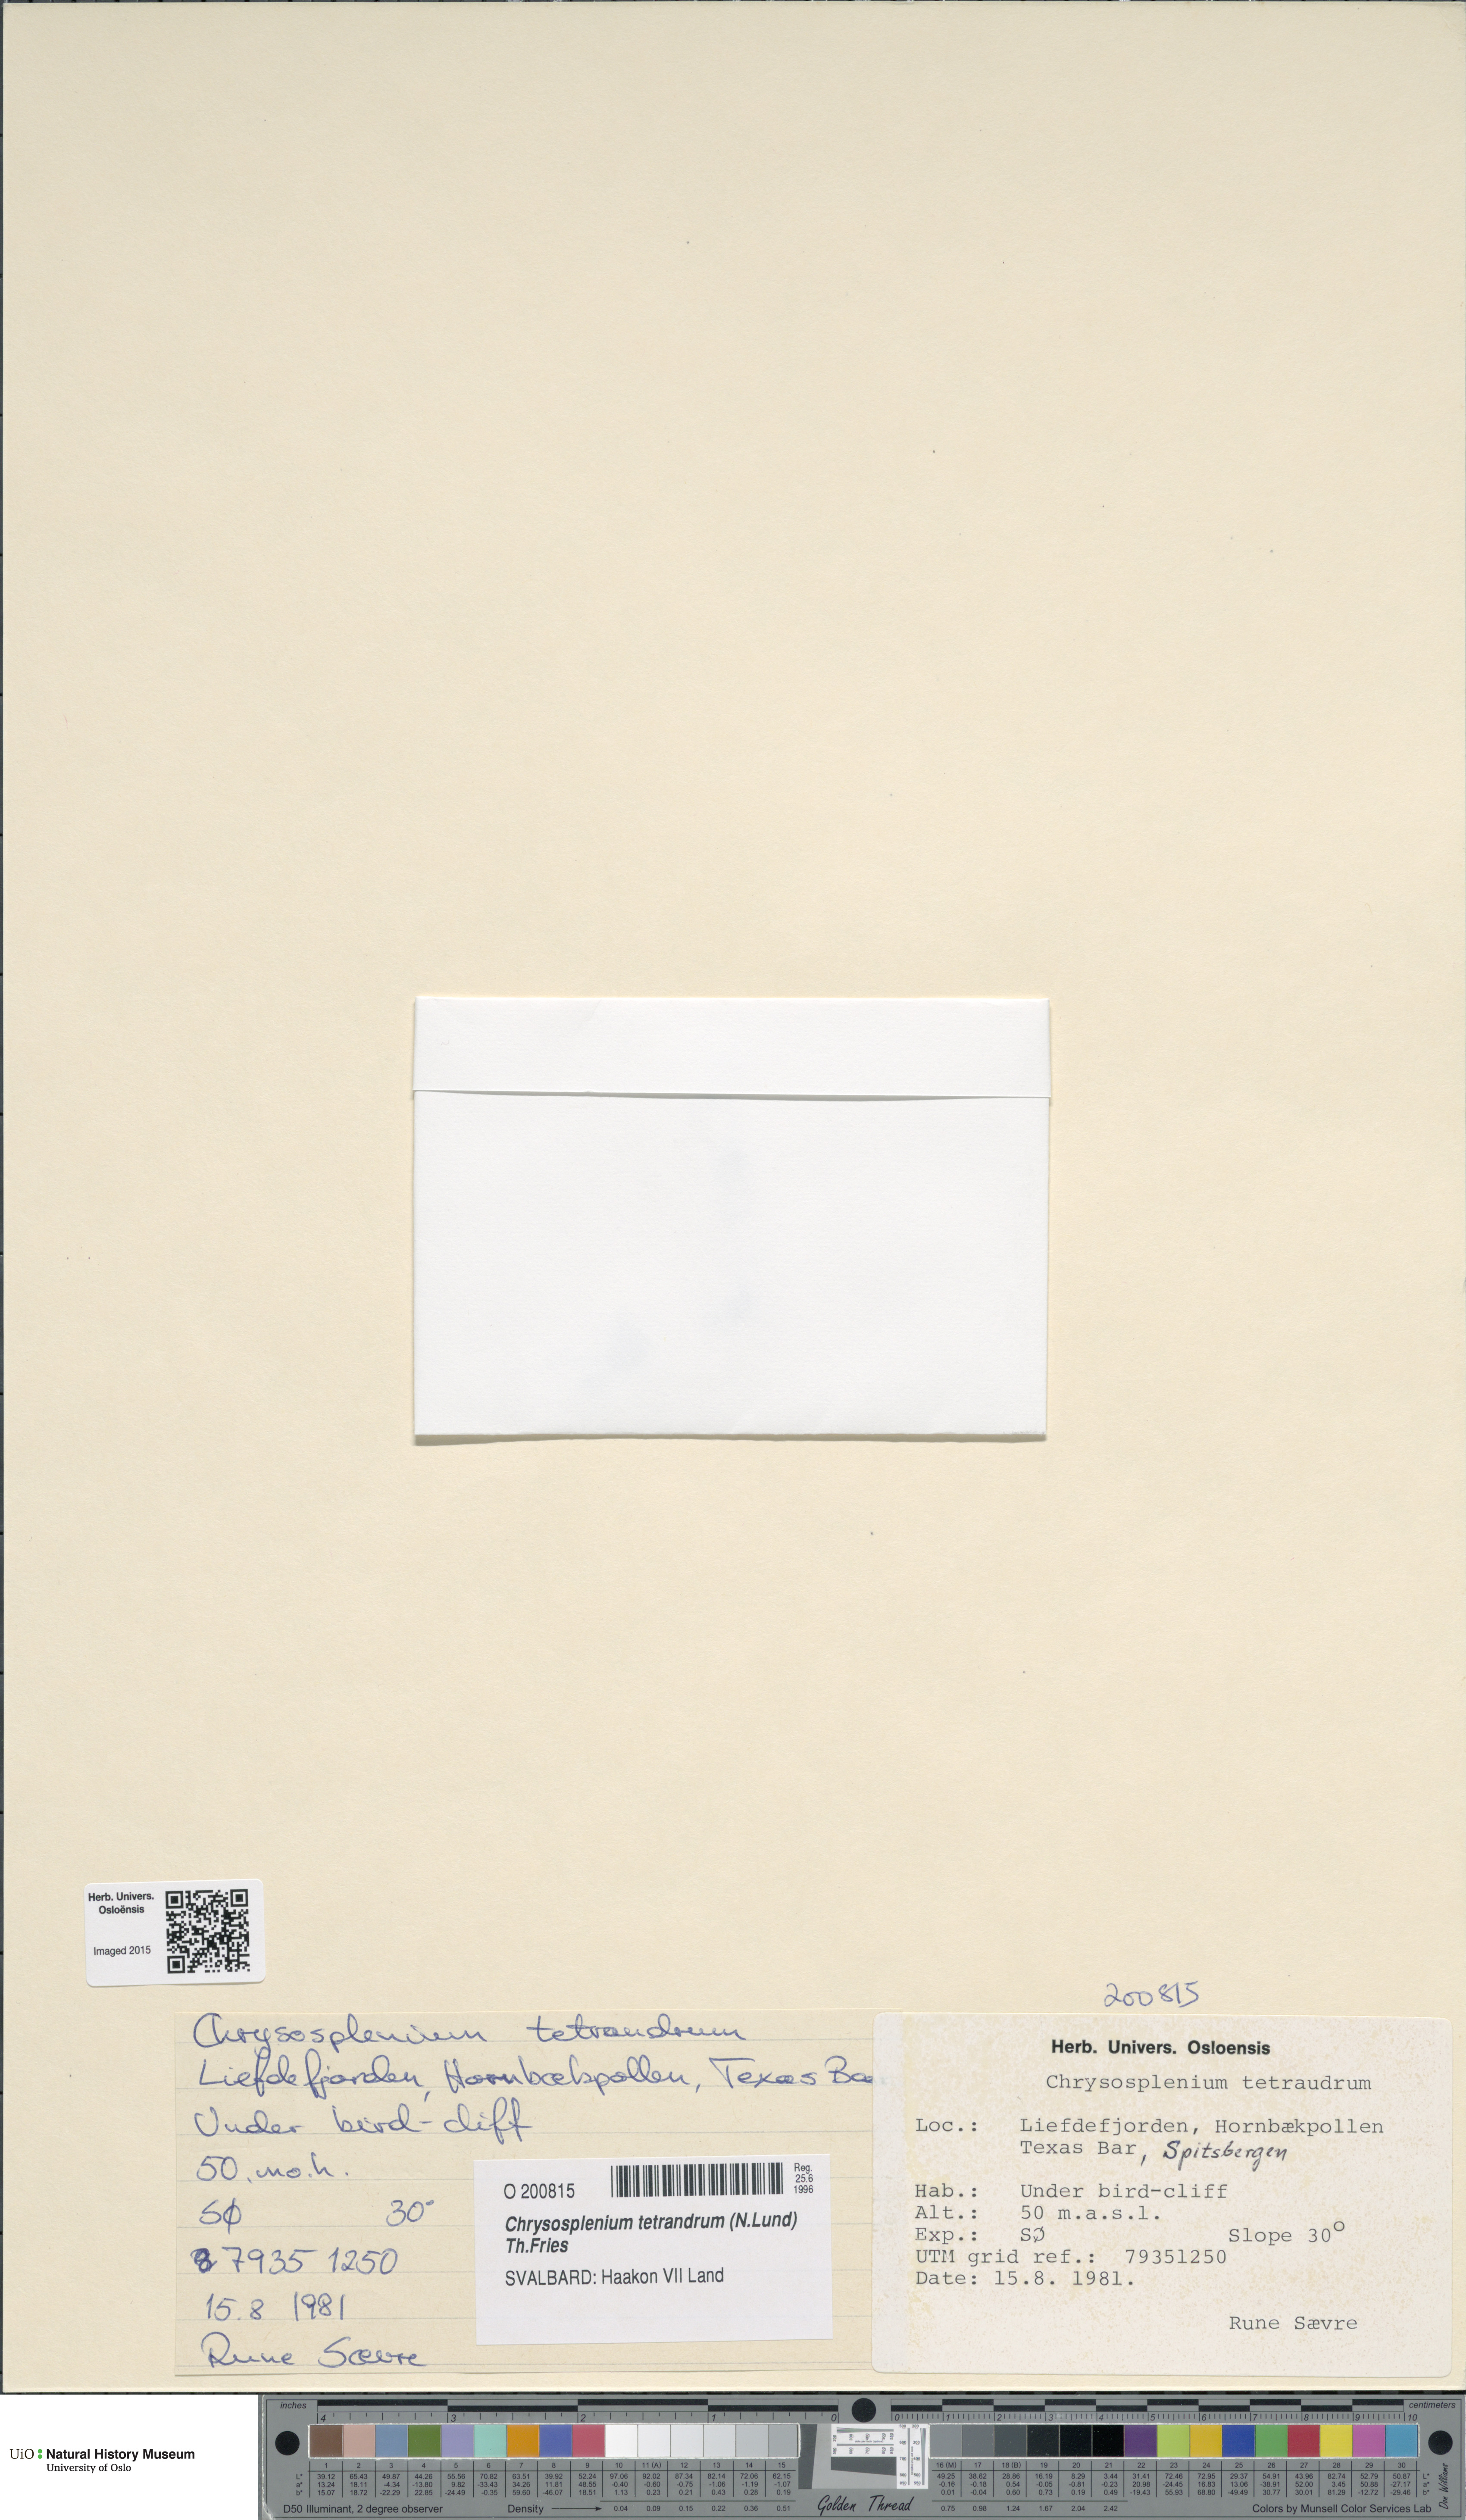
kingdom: Plantae
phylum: Tracheophyta
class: Magnoliopsida
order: Saxifragales
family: Saxifragaceae
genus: Chrysosplenium
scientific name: Chrysosplenium tetrandrum
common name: Green saxifrage
